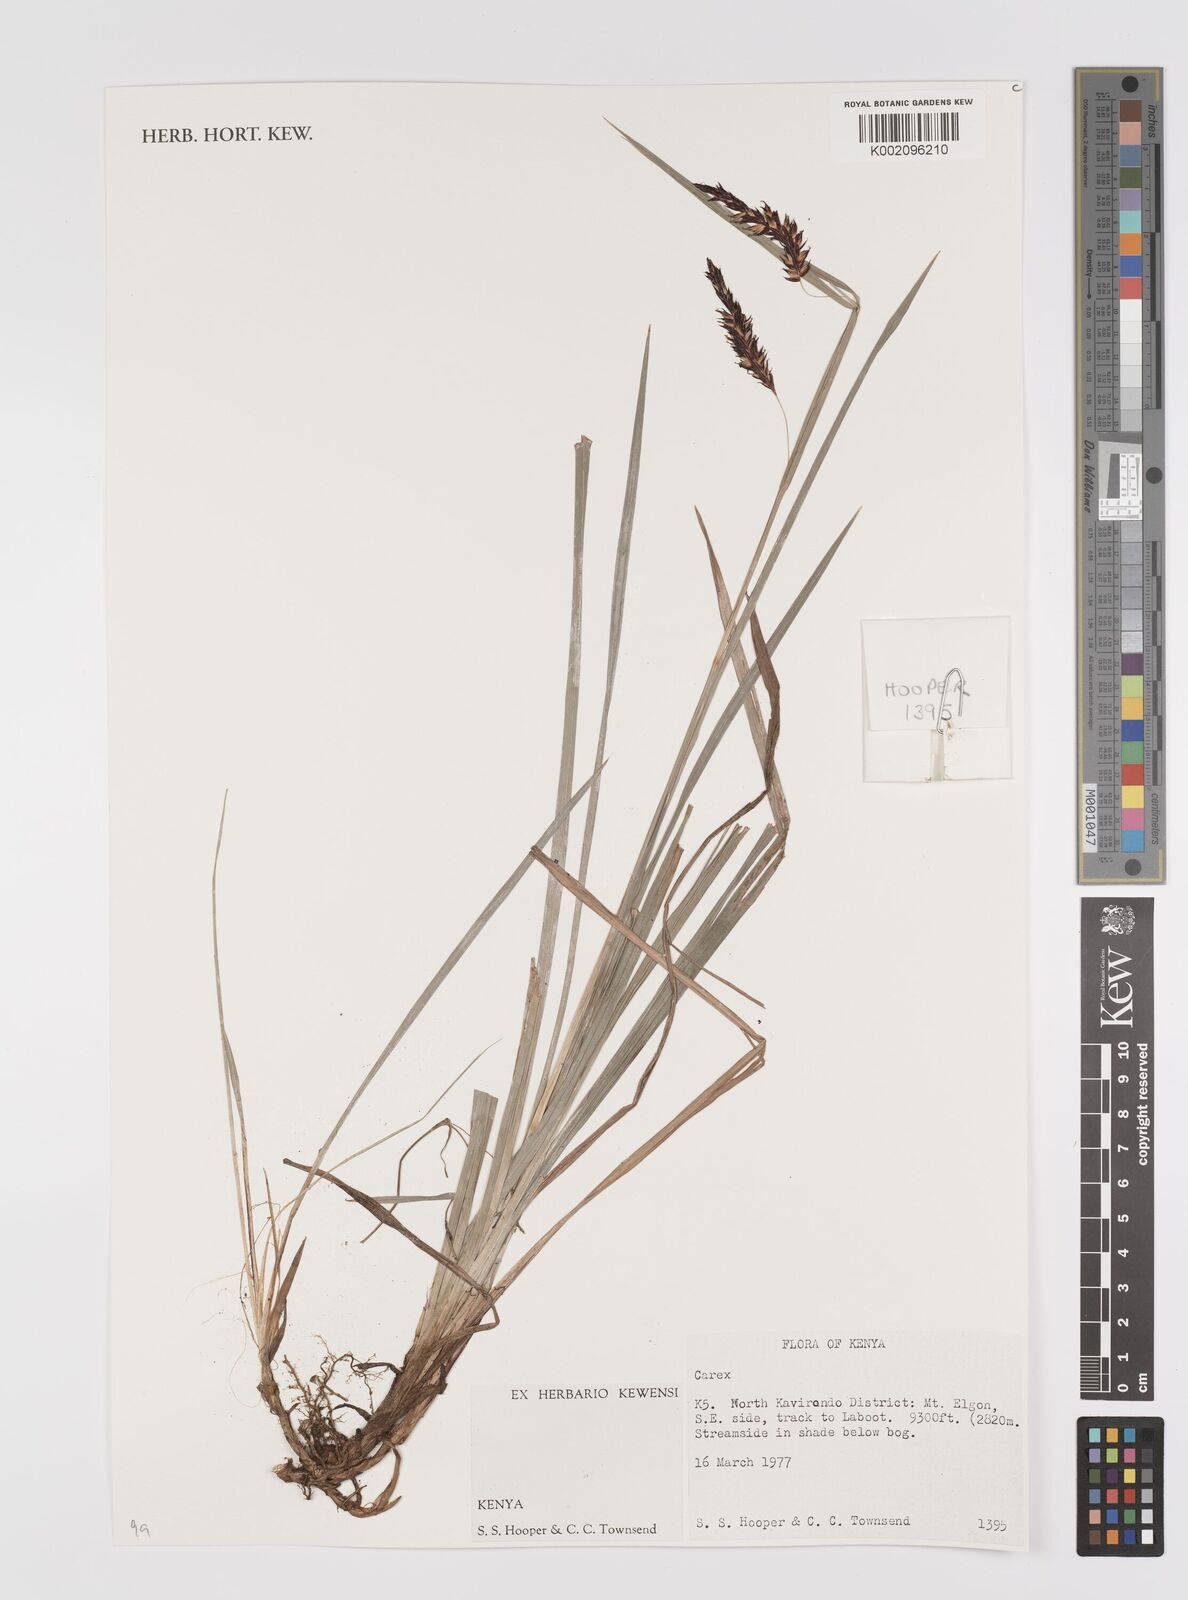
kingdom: Plantae
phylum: Tracheophyta
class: Liliopsida
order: Poales
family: Cyperaceae
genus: Carex
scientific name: Carex
